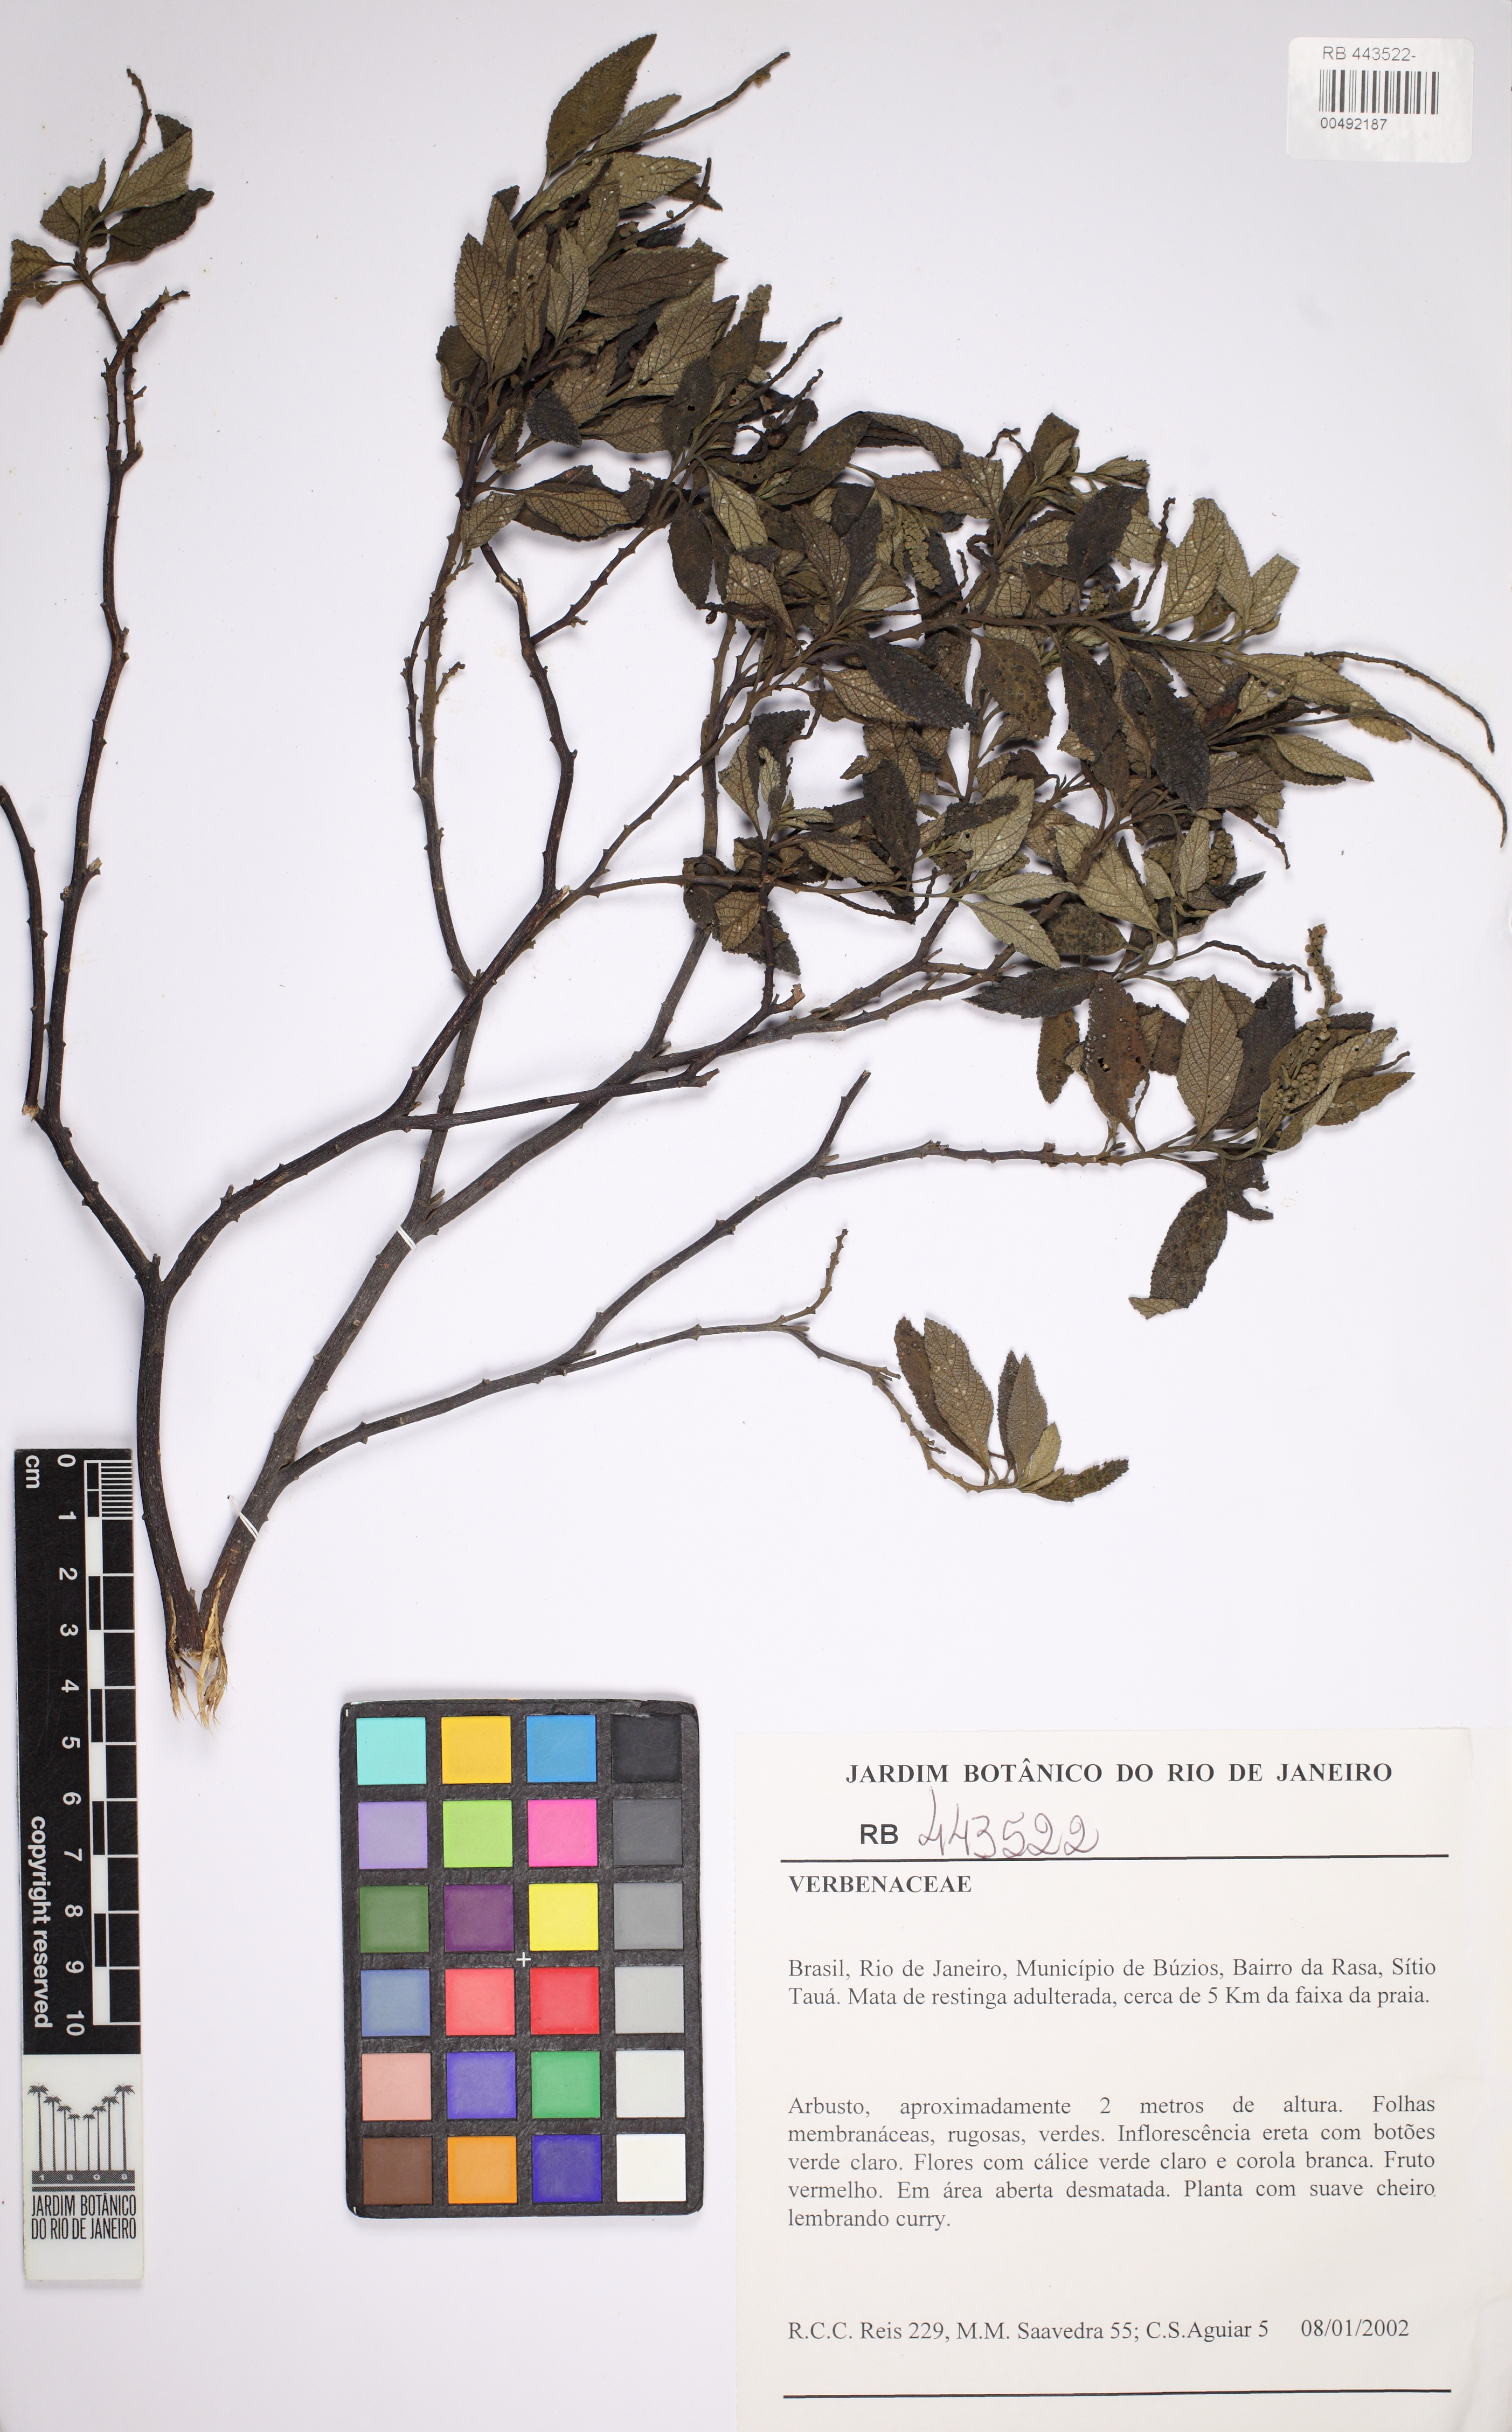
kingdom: Plantae
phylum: Tracheophyta
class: Magnoliopsida
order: Boraginales
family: Cordiaceae
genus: Varronia
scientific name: Varronia curassavica
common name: Black sage
